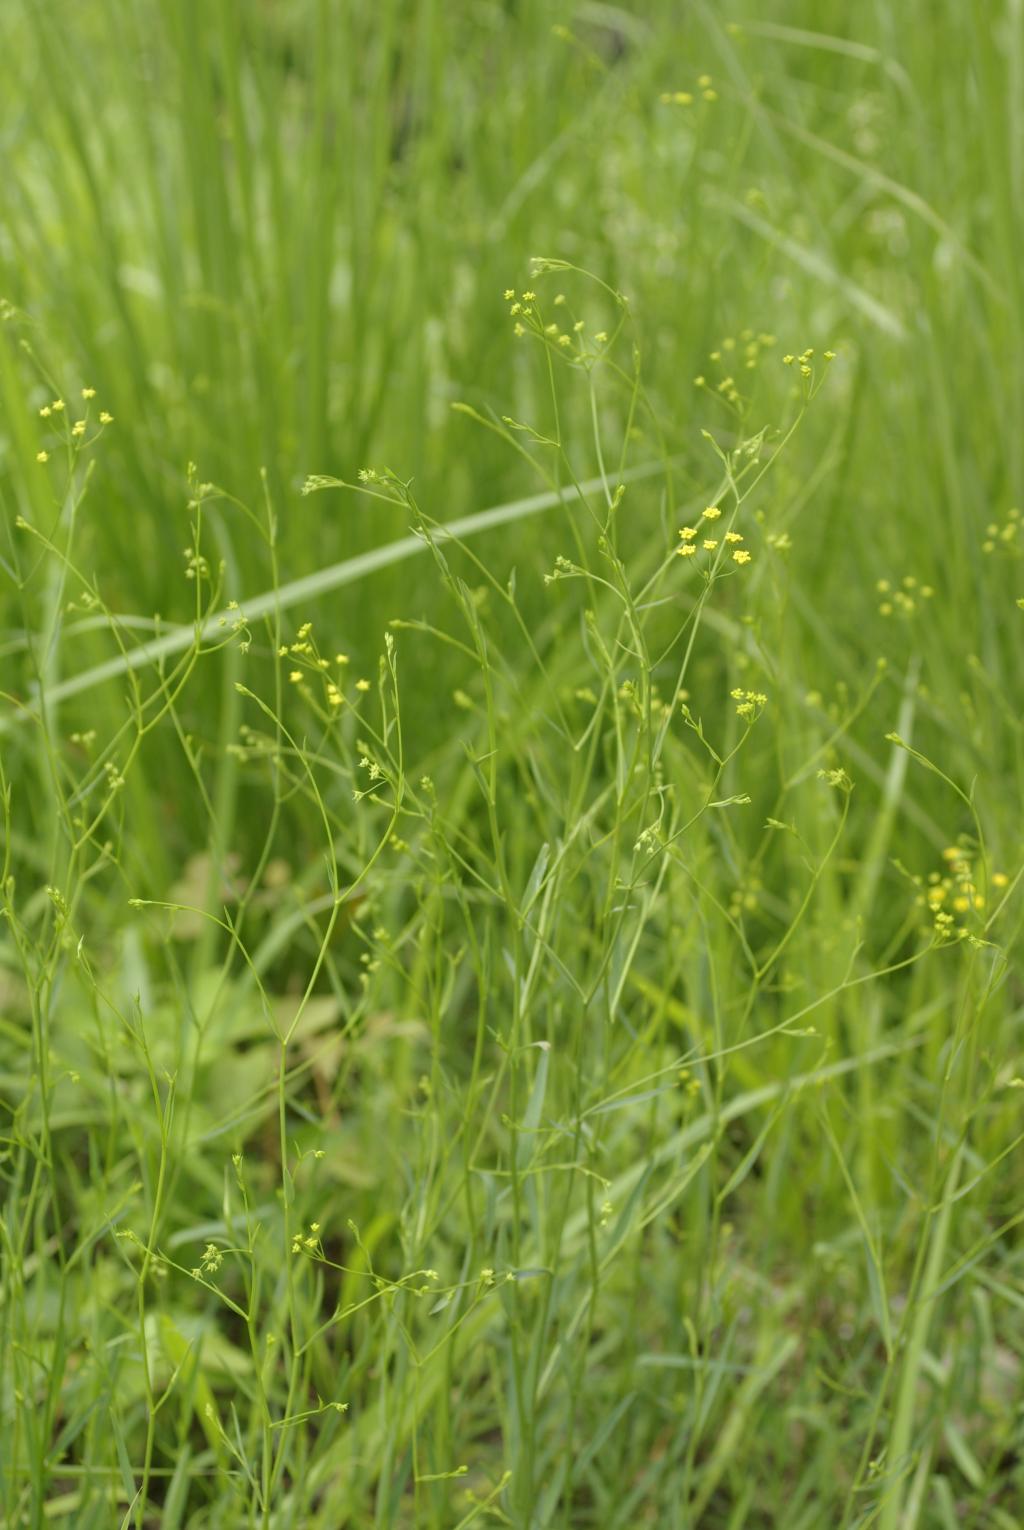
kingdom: Plantae
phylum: Tracheophyta
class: Magnoliopsida
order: Apiales
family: Apiaceae
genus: Bupleurum
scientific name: Bupleurum kaoi
